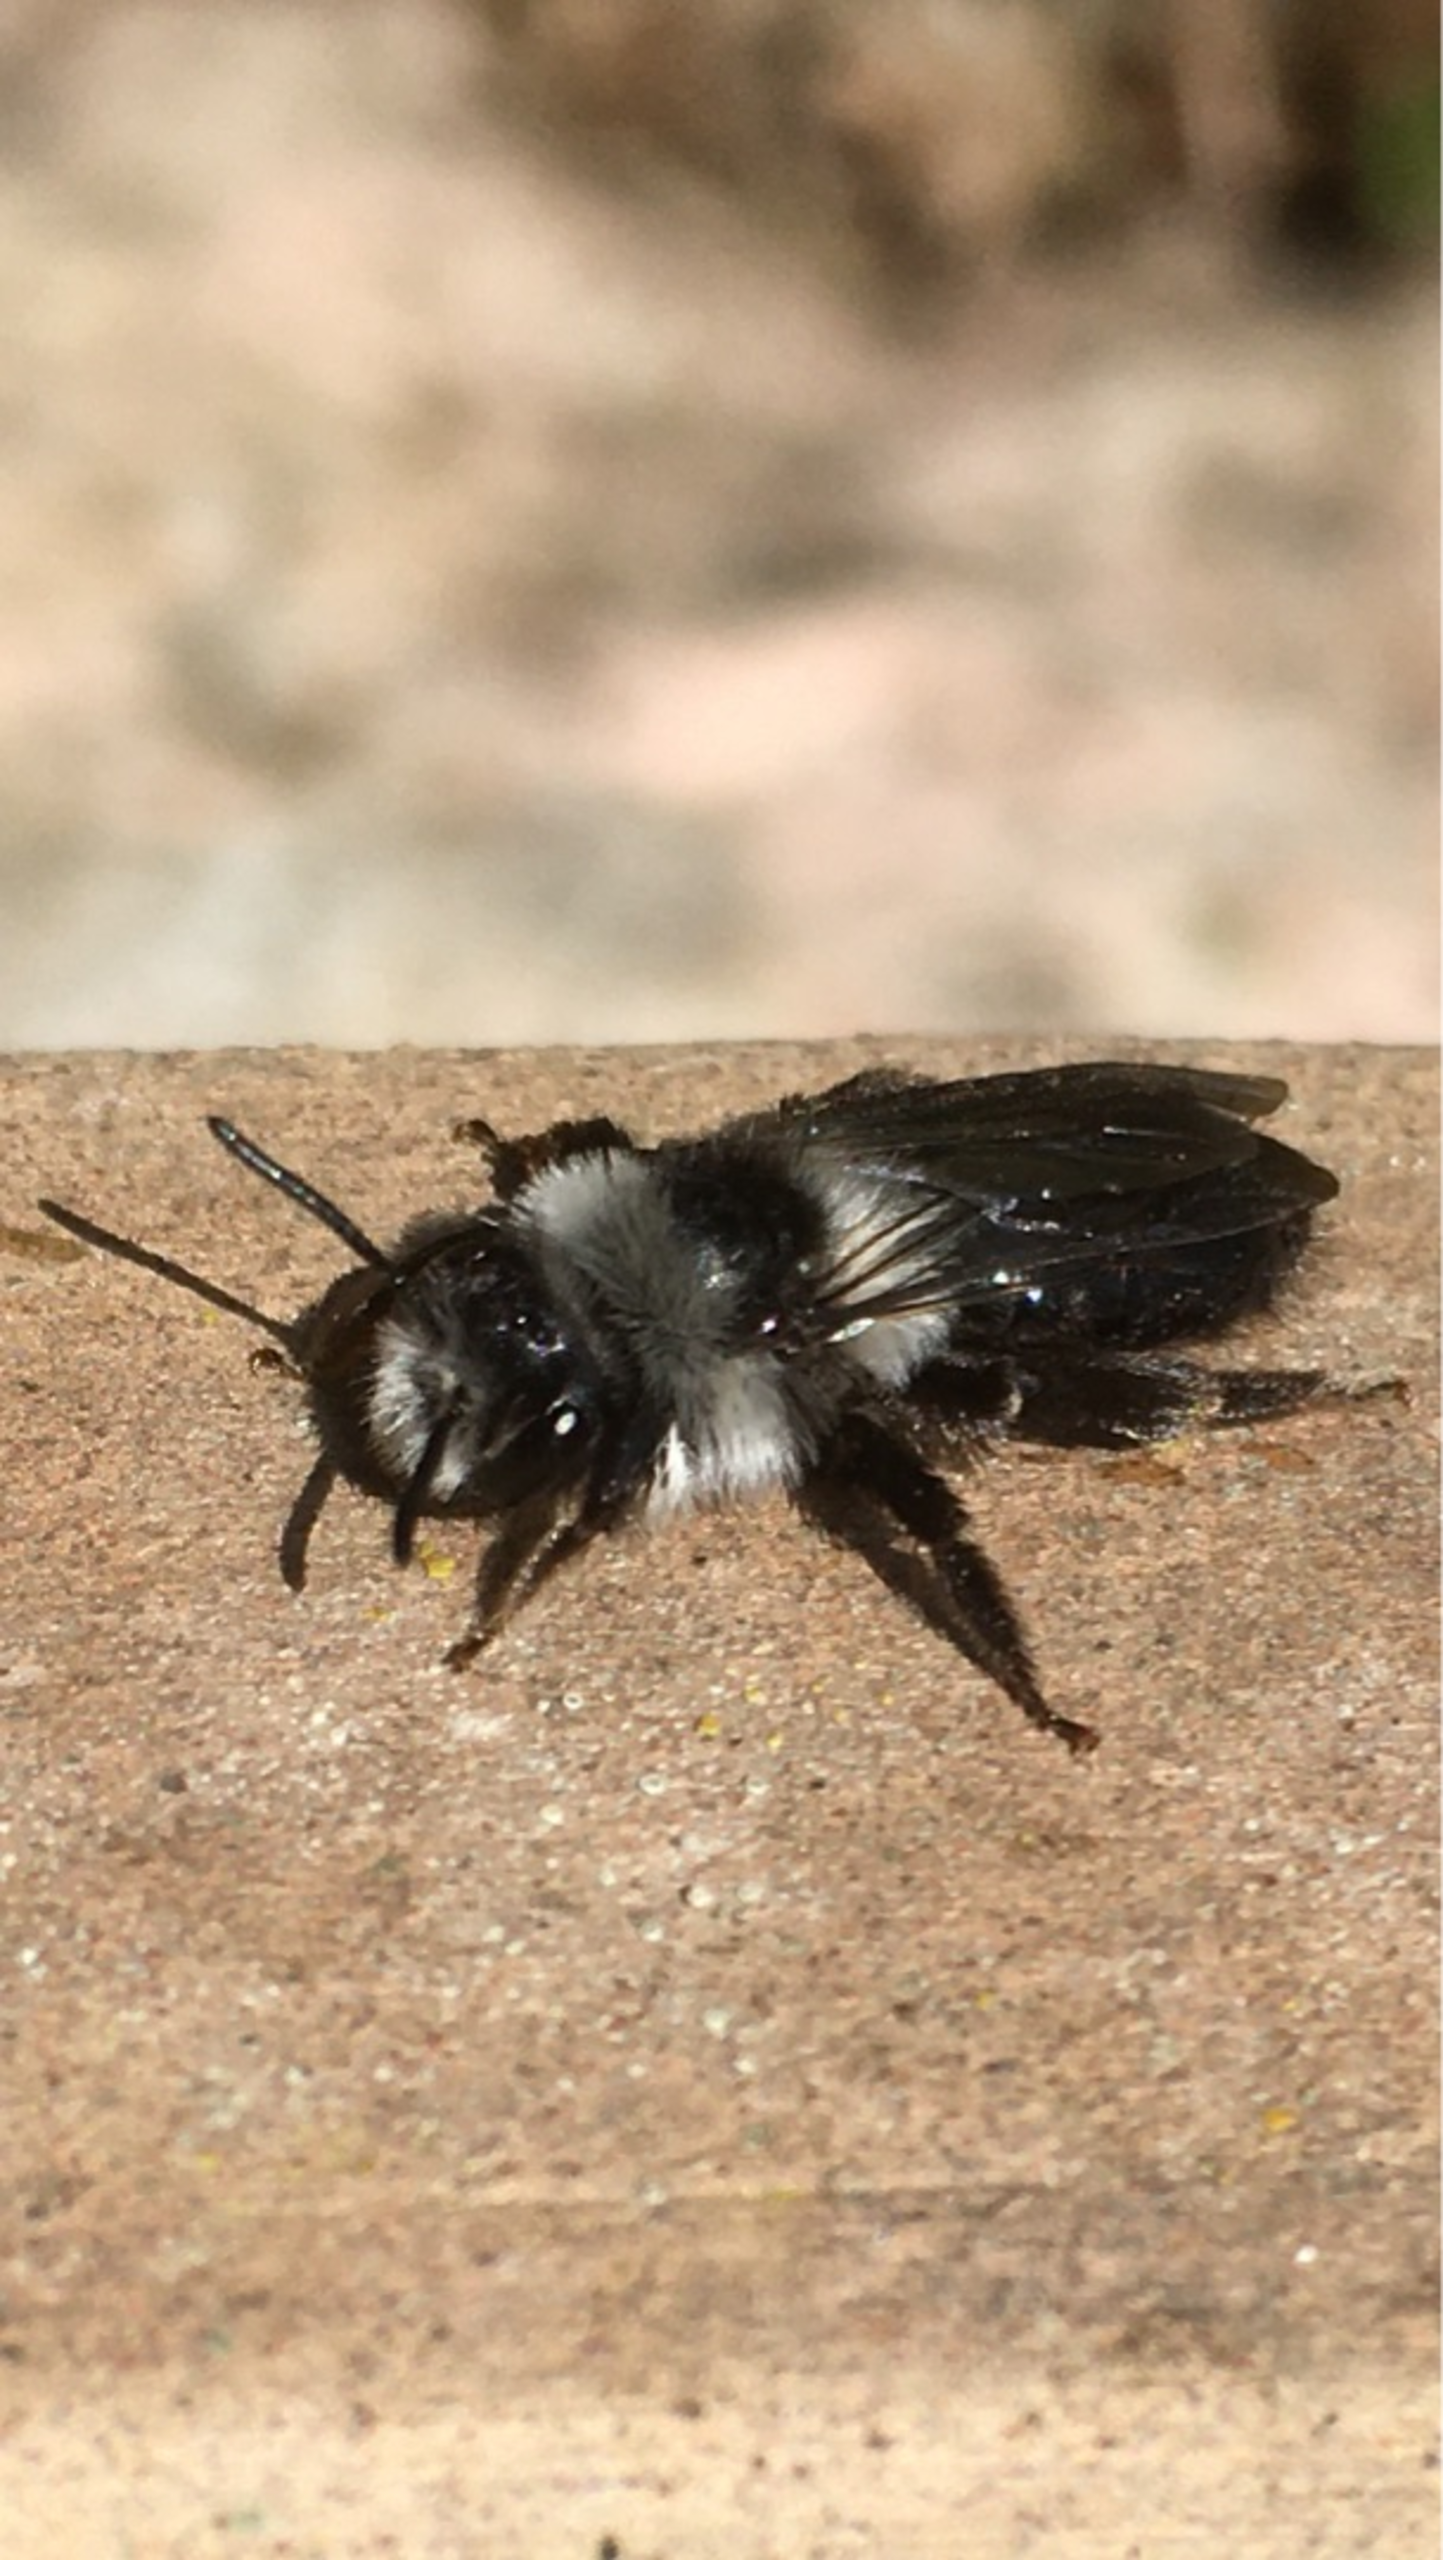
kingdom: Animalia
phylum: Arthropoda
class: Insecta
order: Hymenoptera
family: Andrenidae
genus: Andrena
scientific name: Andrena cineraria
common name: Sorthvid jordbi
